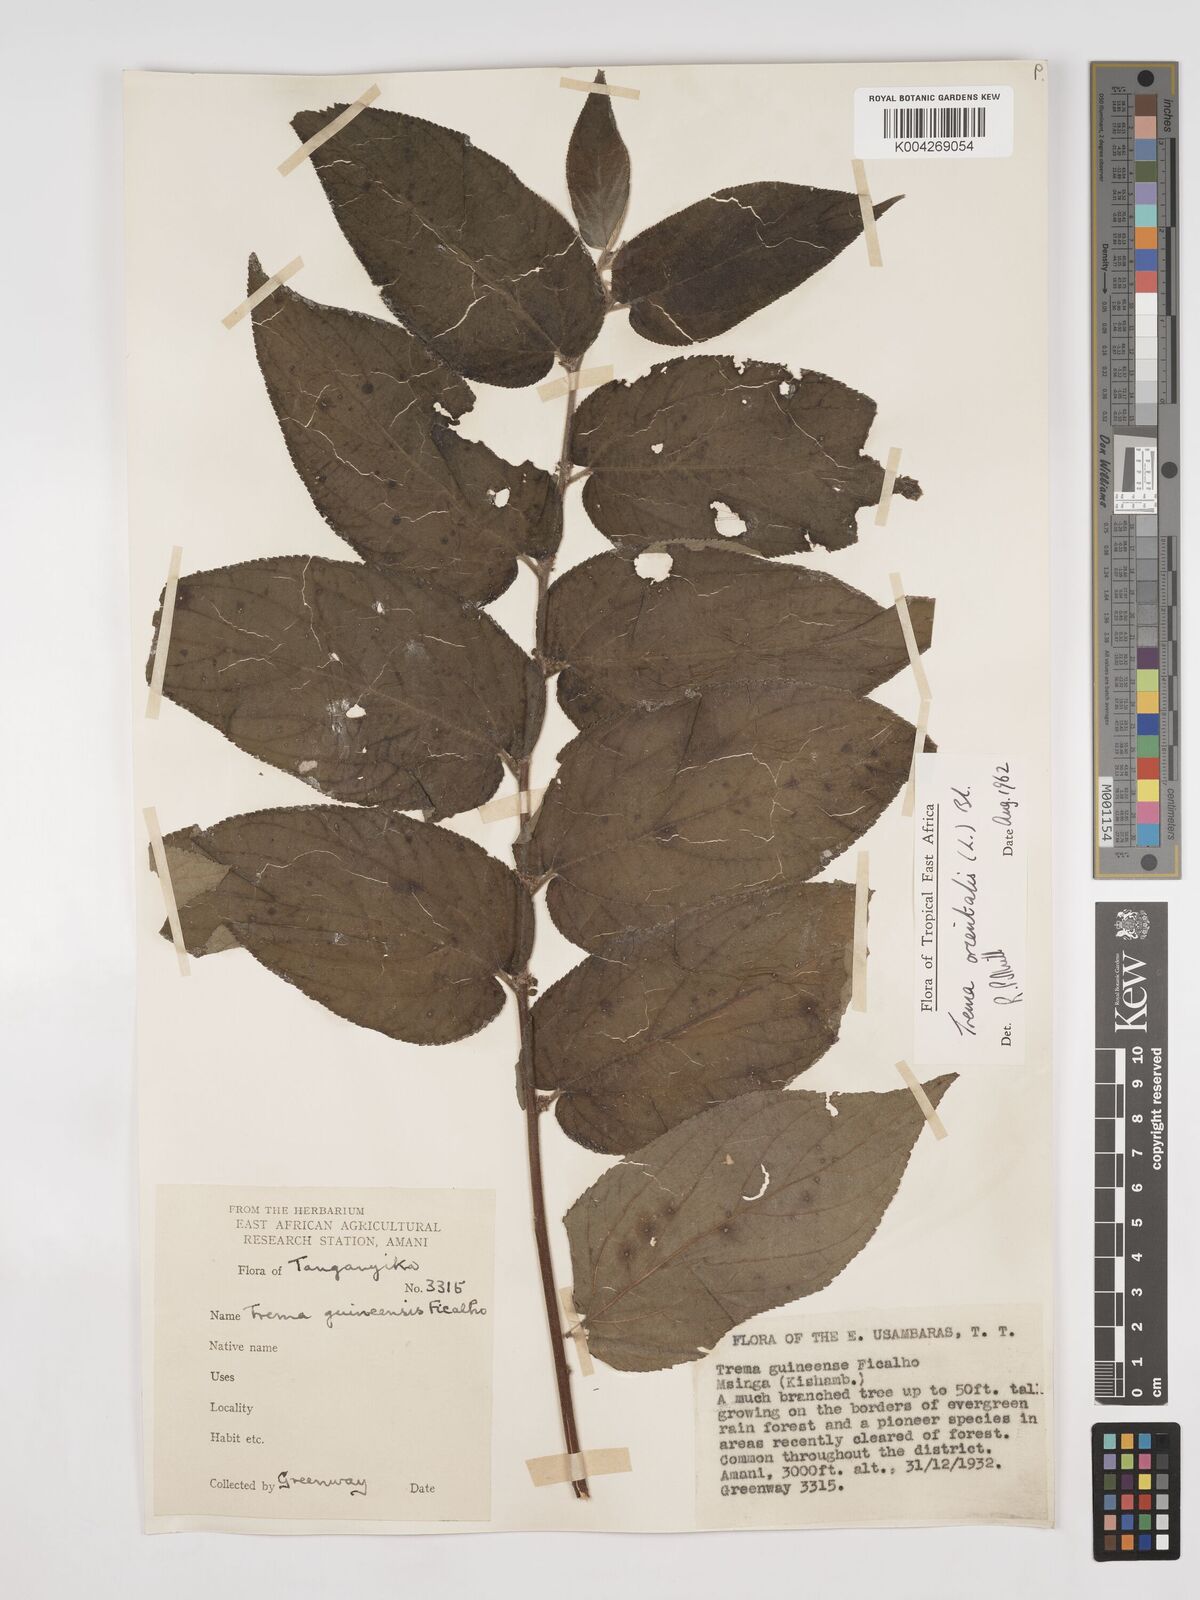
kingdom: Plantae
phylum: Tracheophyta
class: Magnoliopsida
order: Rosales
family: Cannabaceae
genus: Trema
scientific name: Trema orientale
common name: Indian charcoal tree
